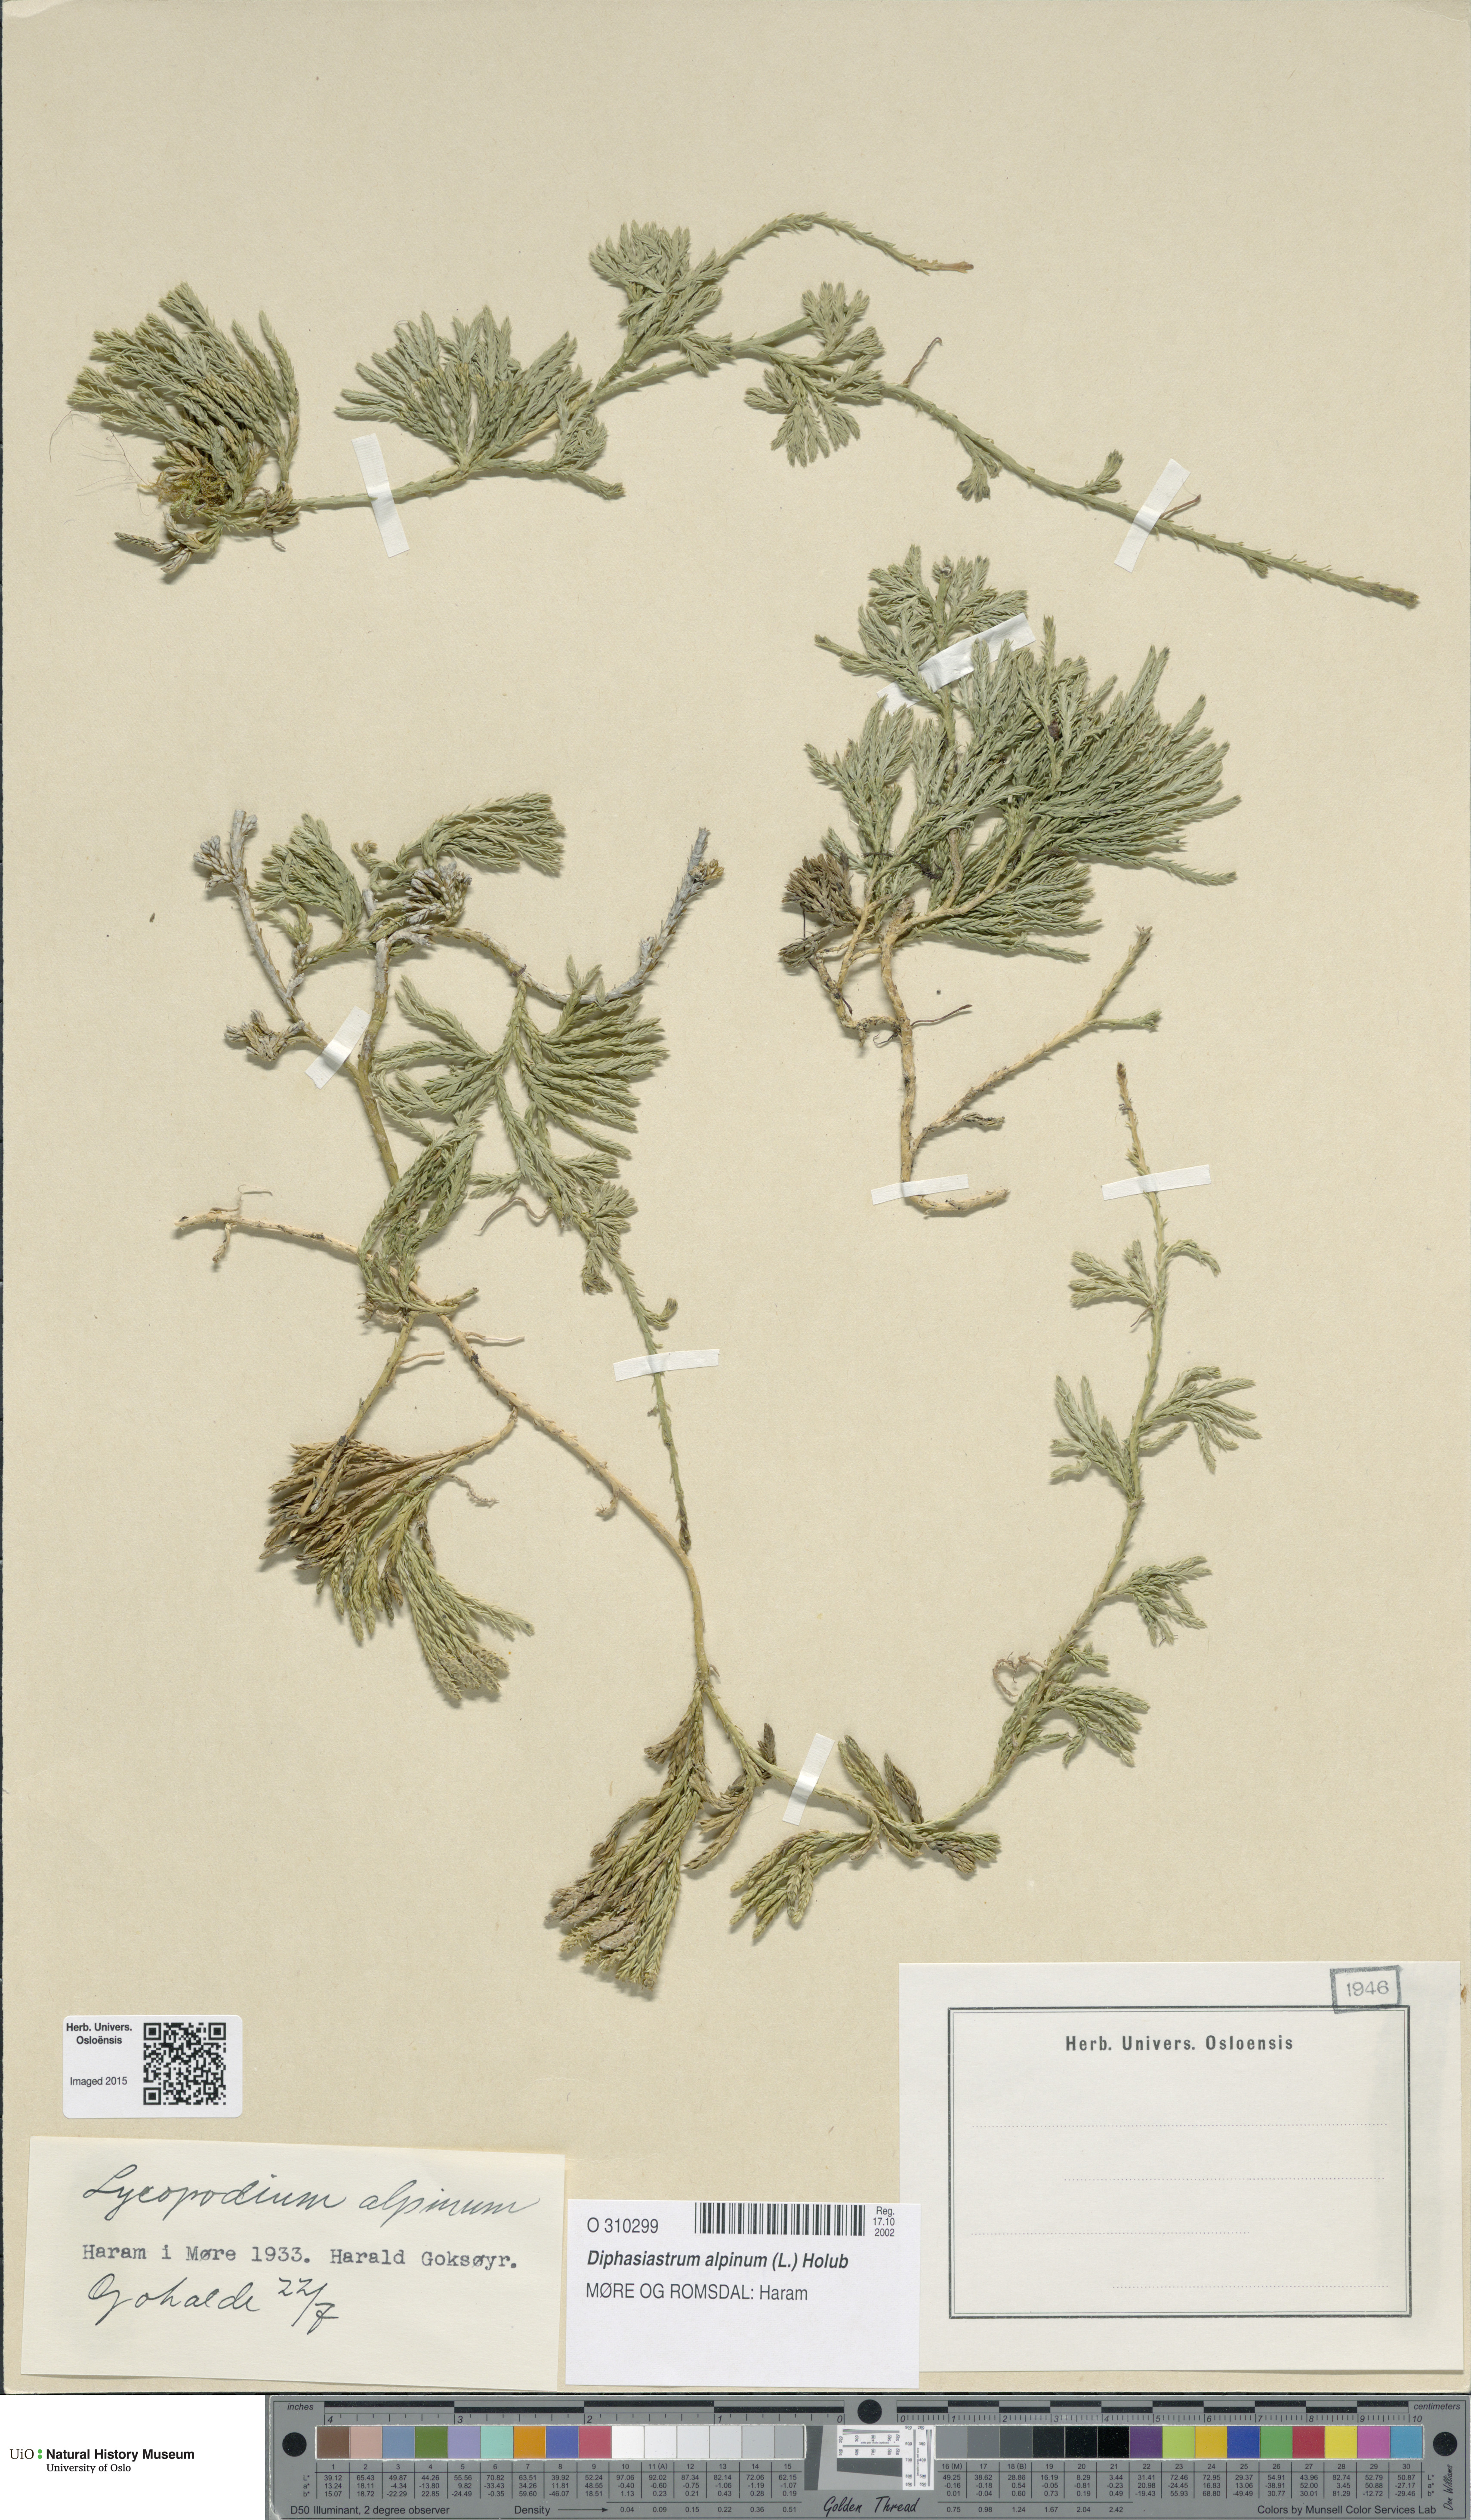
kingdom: Plantae
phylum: Tracheophyta
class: Lycopodiopsida
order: Lycopodiales
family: Lycopodiaceae
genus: Diphasiastrum
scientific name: Diphasiastrum alpinum
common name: Alpine clubmoss
